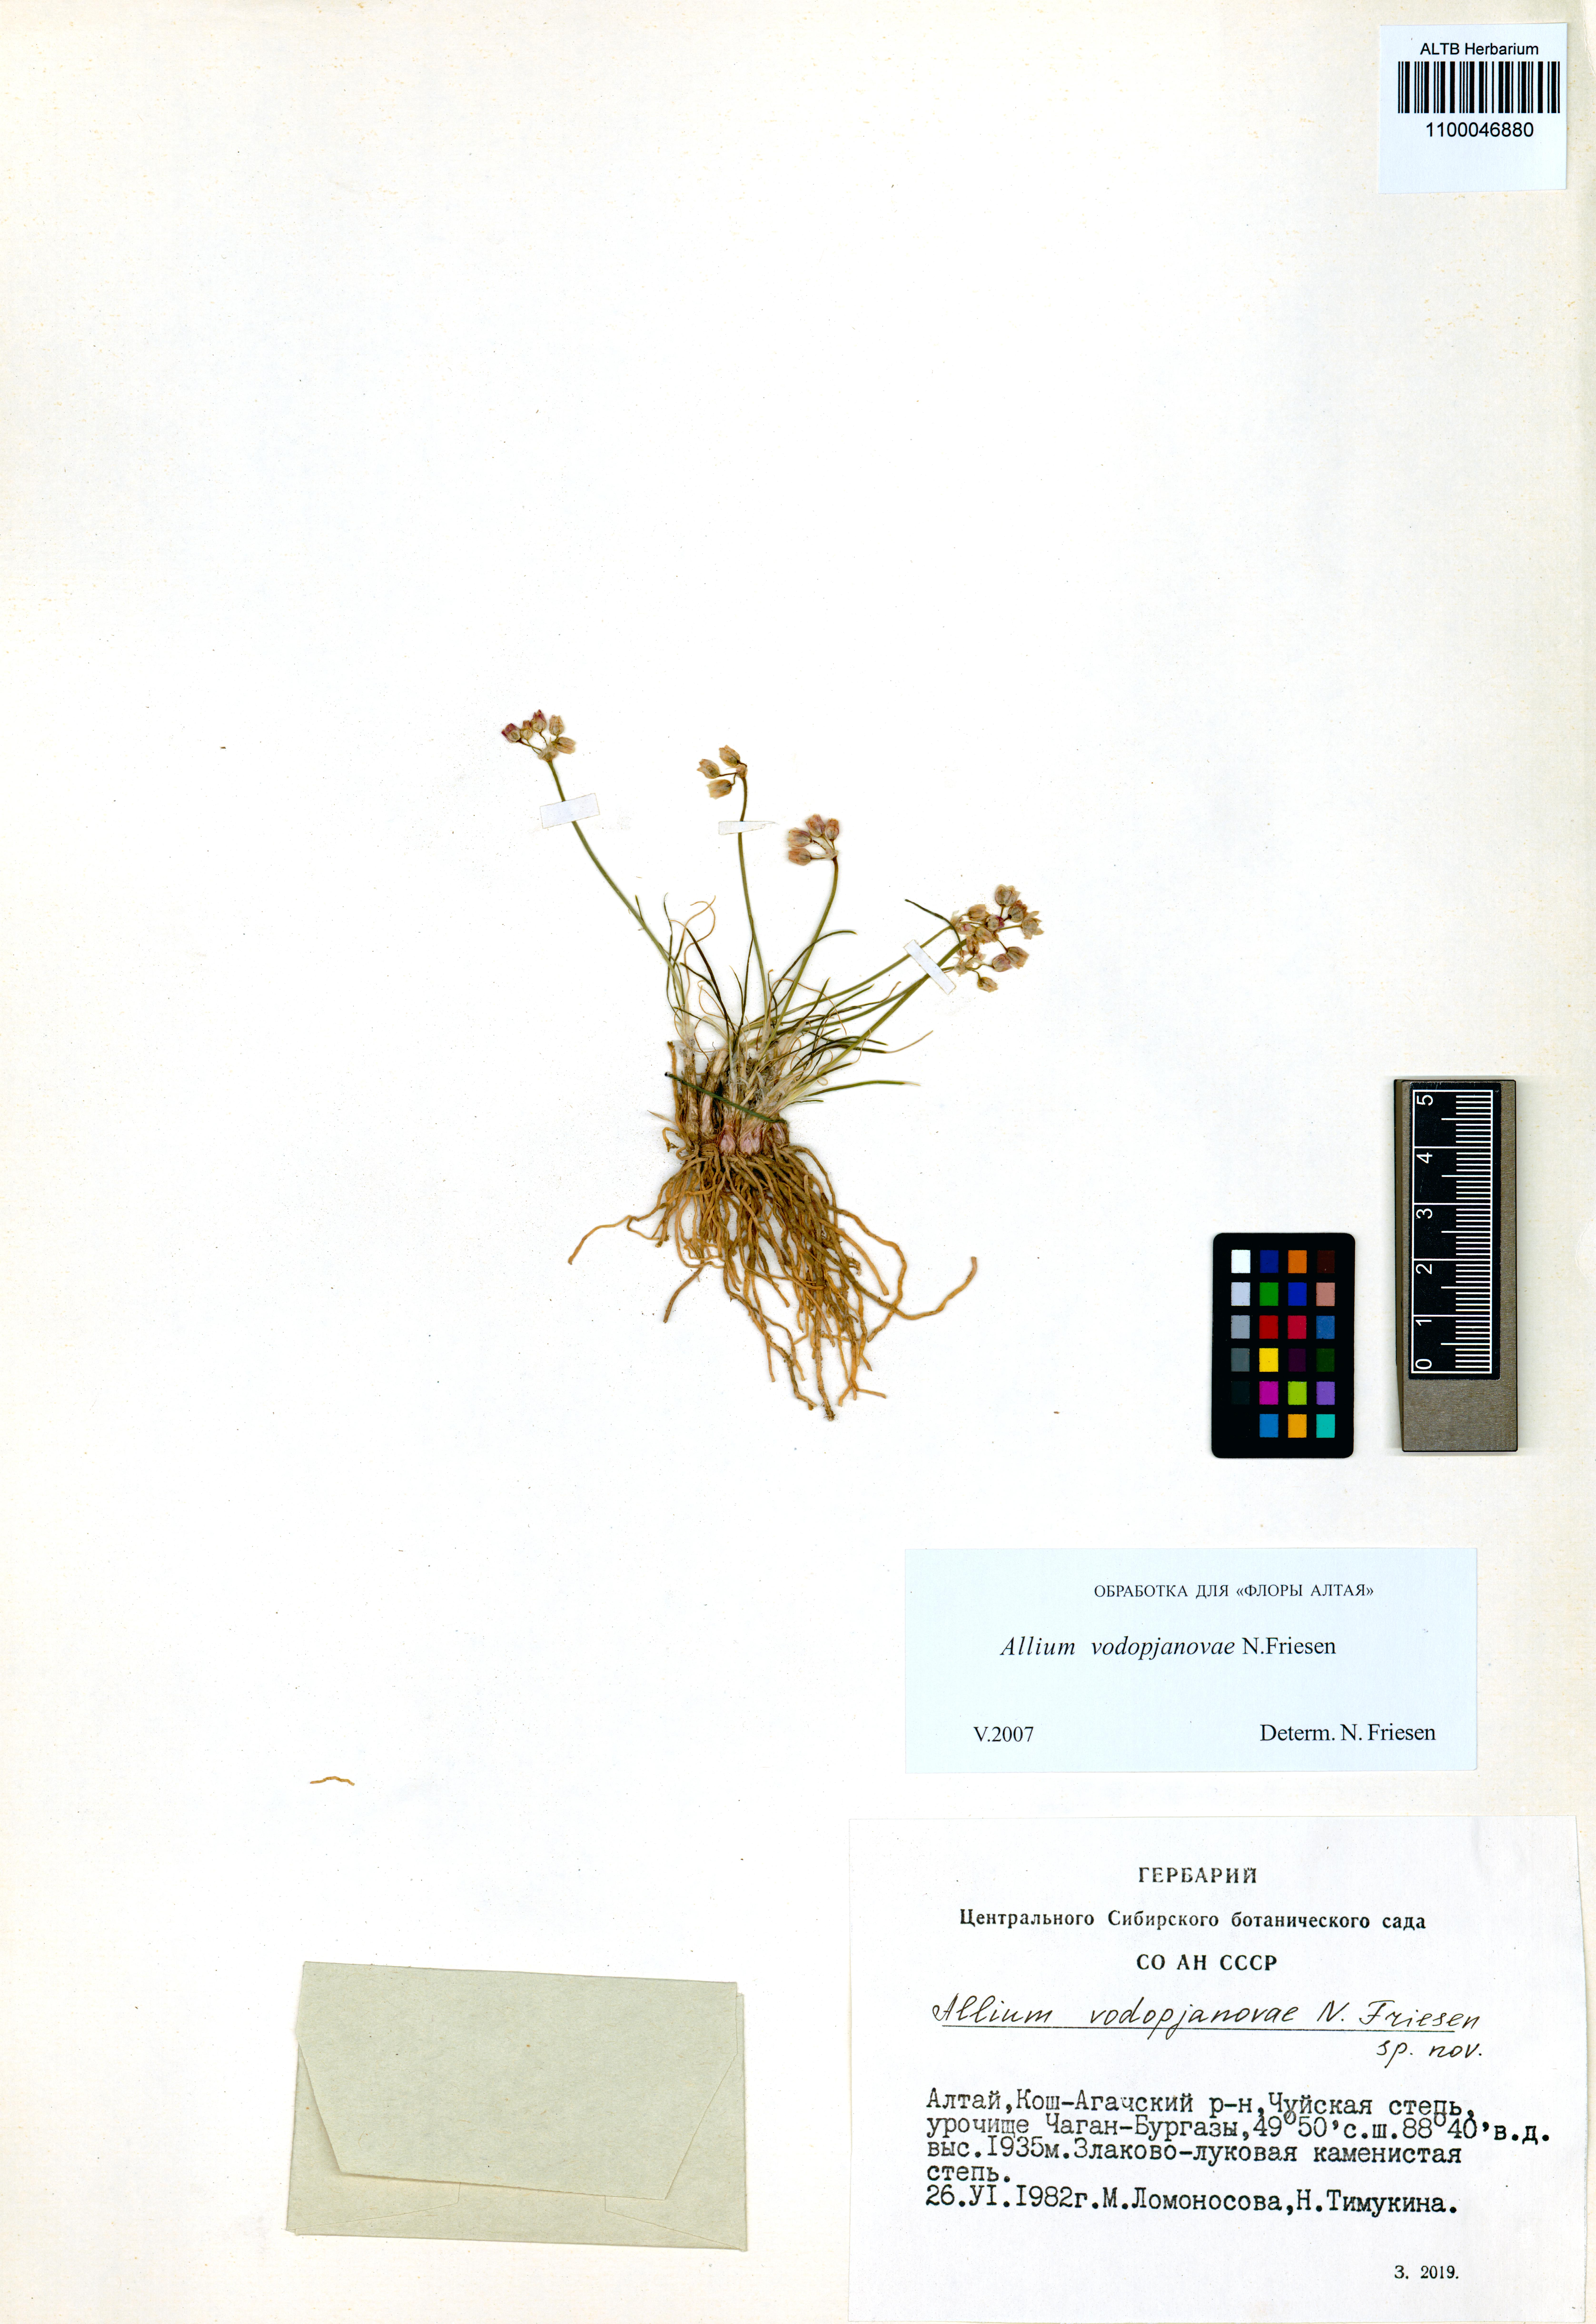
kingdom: Plantae
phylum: Tracheophyta
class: Liliopsida
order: Asparagales
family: Amaryllidaceae
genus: Allium
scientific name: Allium vodopjanovae
